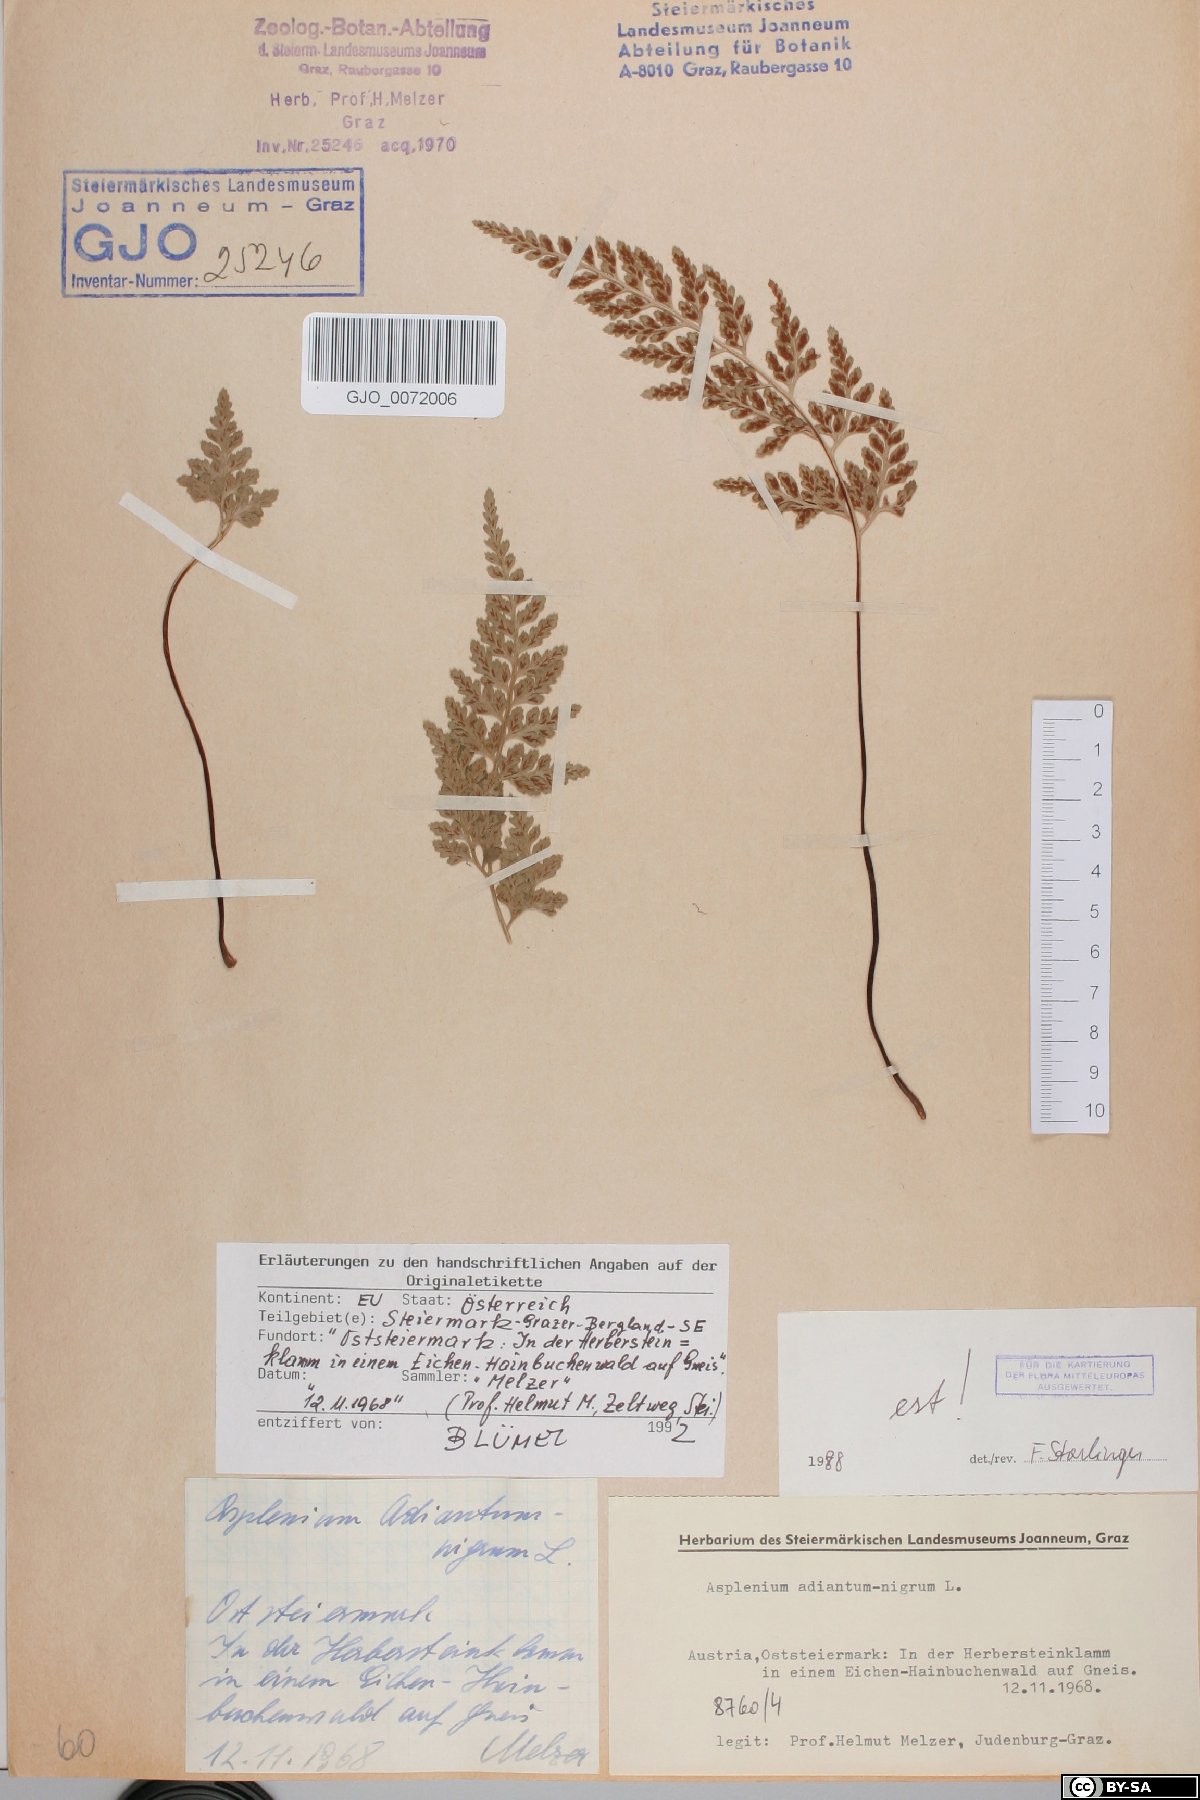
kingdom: Plantae
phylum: Tracheophyta
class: Polypodiopsida
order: Polypodiales
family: Aspleniaceae
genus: Asplenium
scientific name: Asplenium adiantum-nigrum
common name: Black spleenwort
